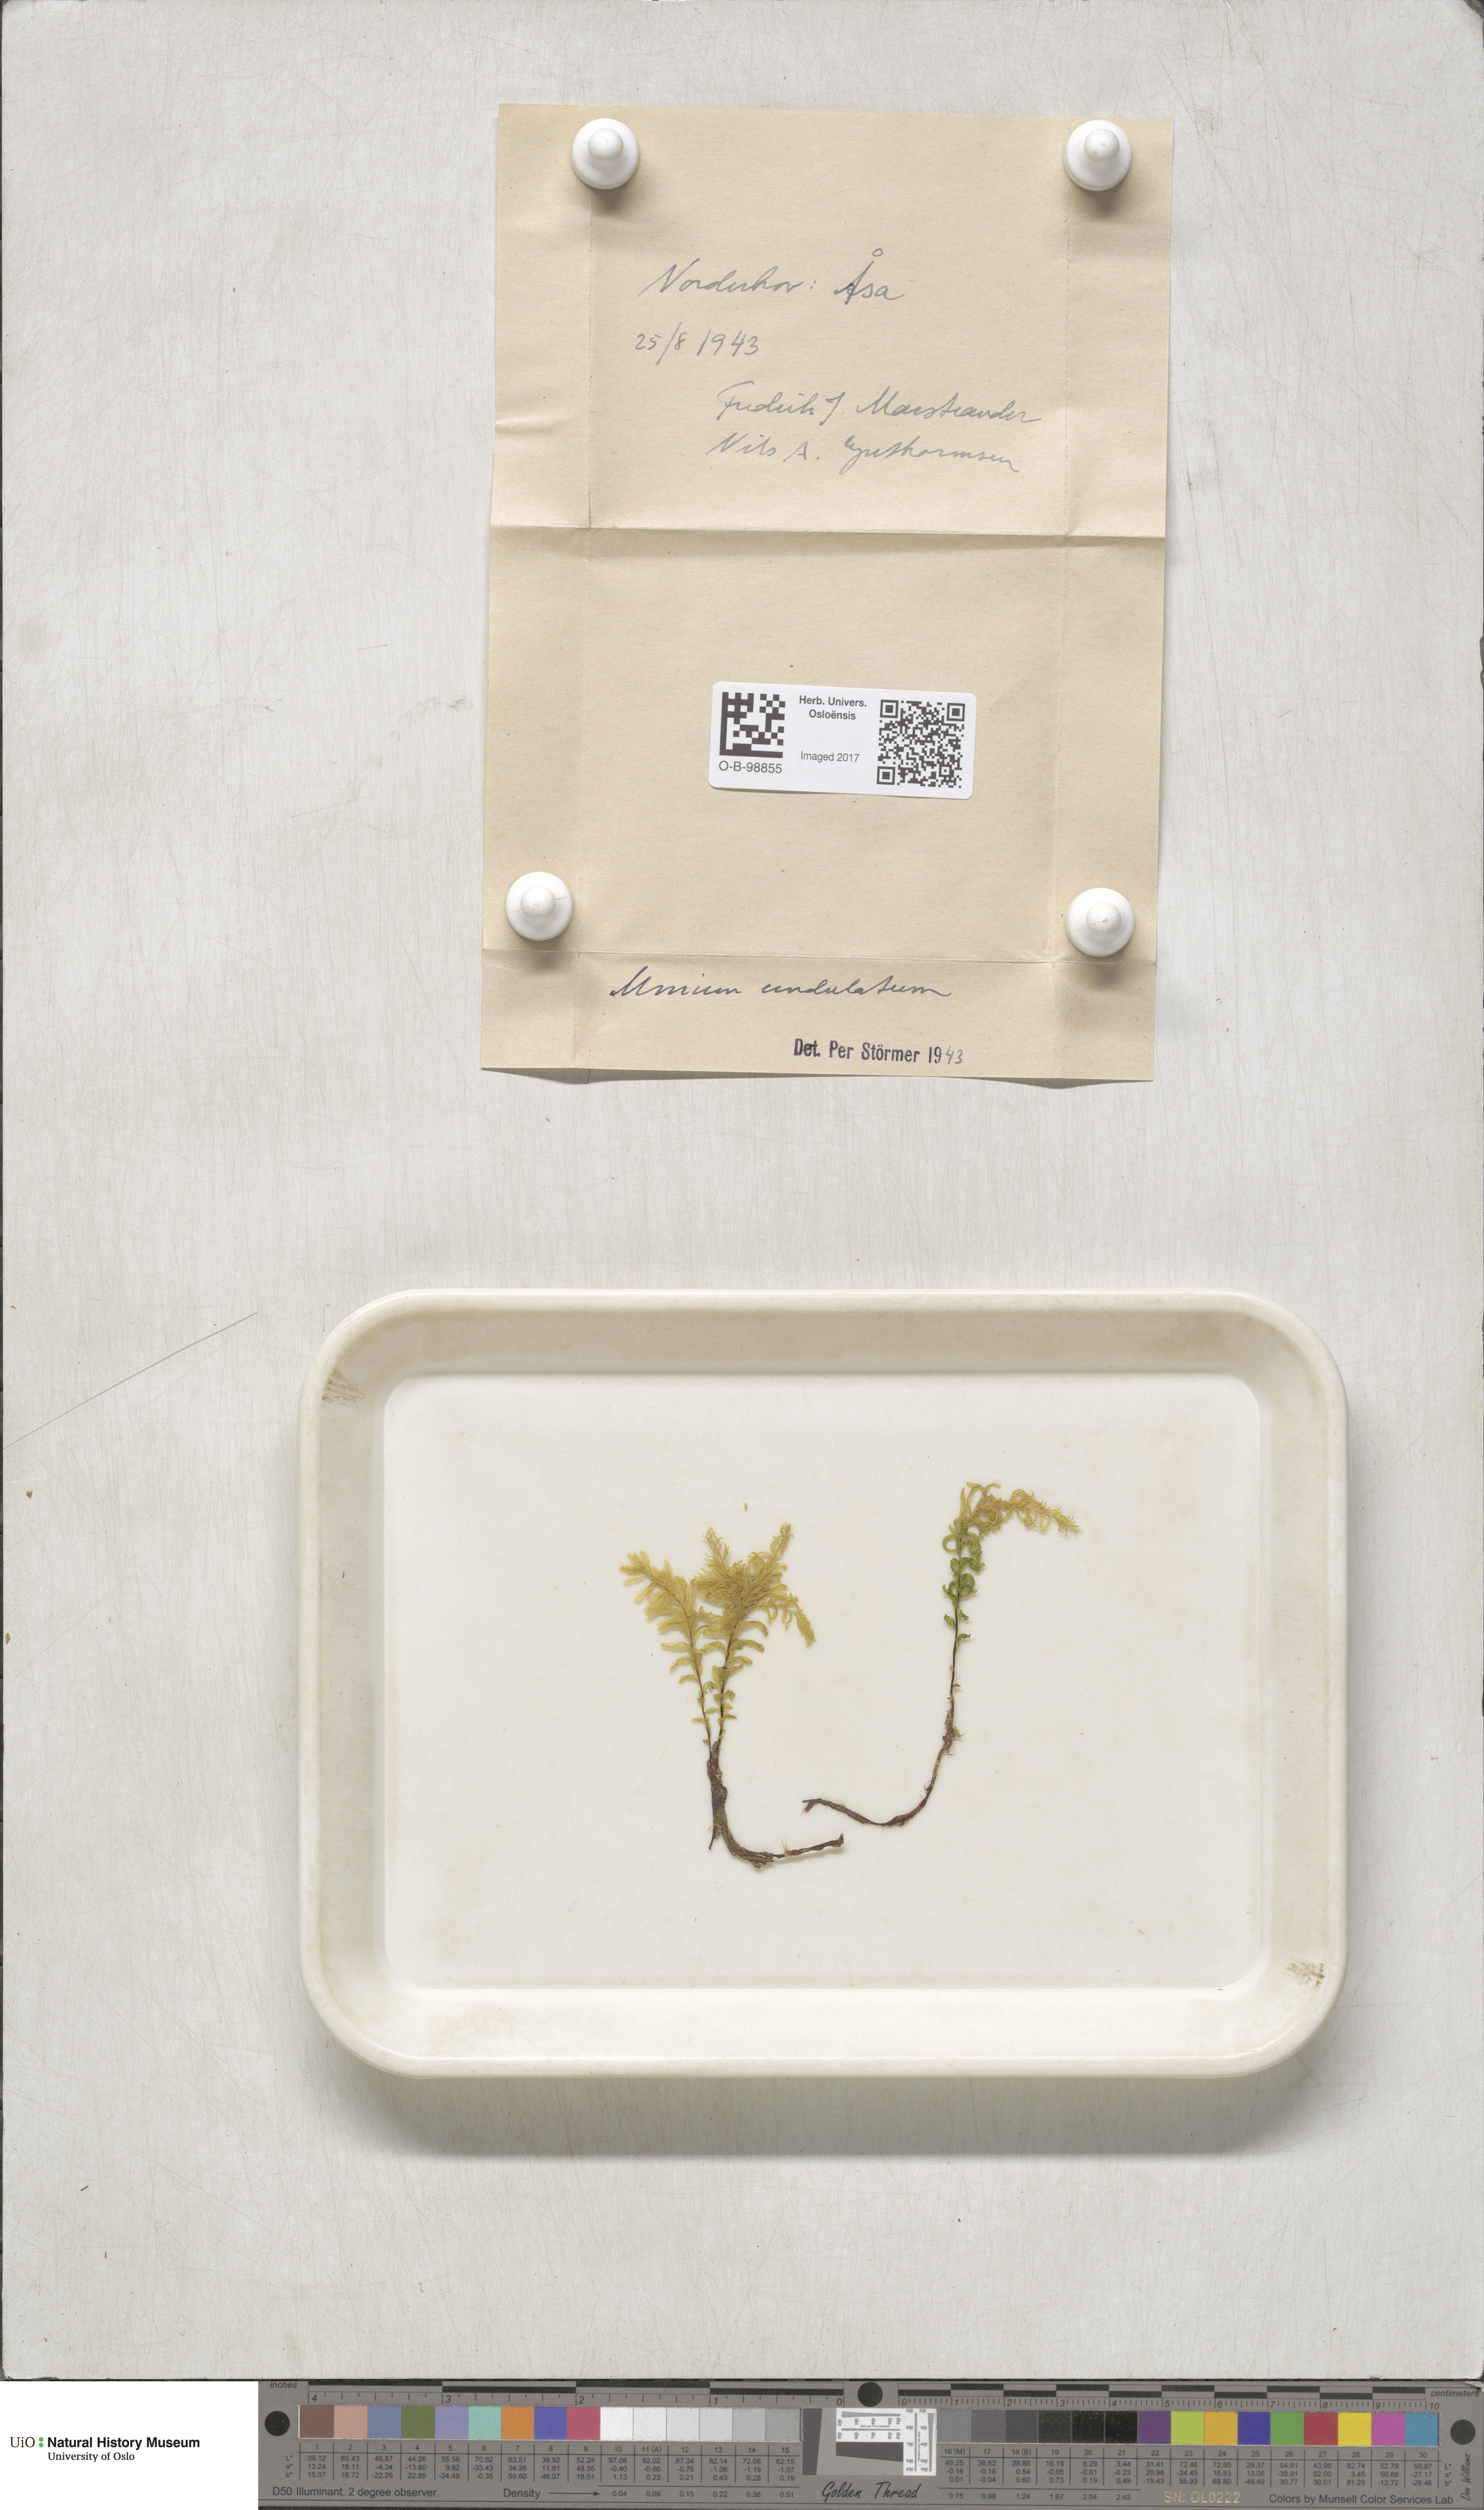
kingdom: Plantae
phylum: Bryophyta
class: Bryopsida
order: Bryales
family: Mniaceae
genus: Plagiomnium
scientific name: Plagiomnium undulatum
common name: Hart's-tongue thyme-moss
